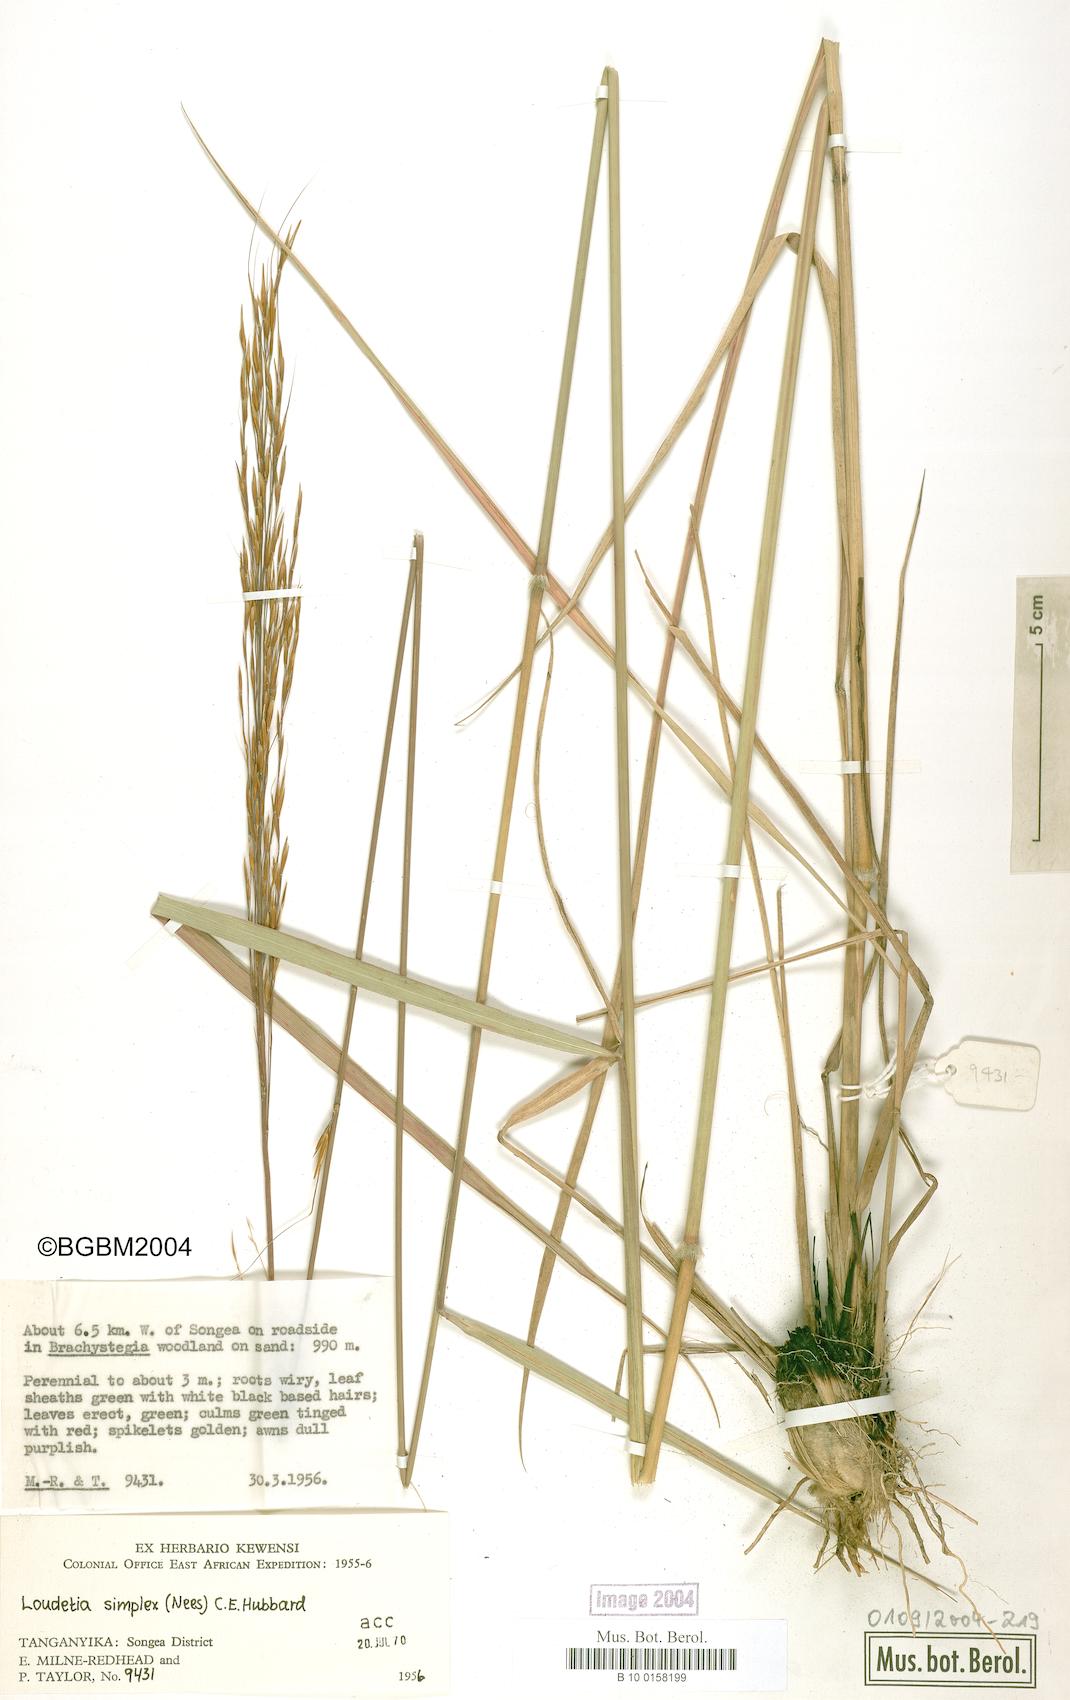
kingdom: Plantae
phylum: Tracheophyta
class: Liliopsida
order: Poales
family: Poaceae
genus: Loudetia
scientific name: Loudetia simplex
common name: Common russet grass
